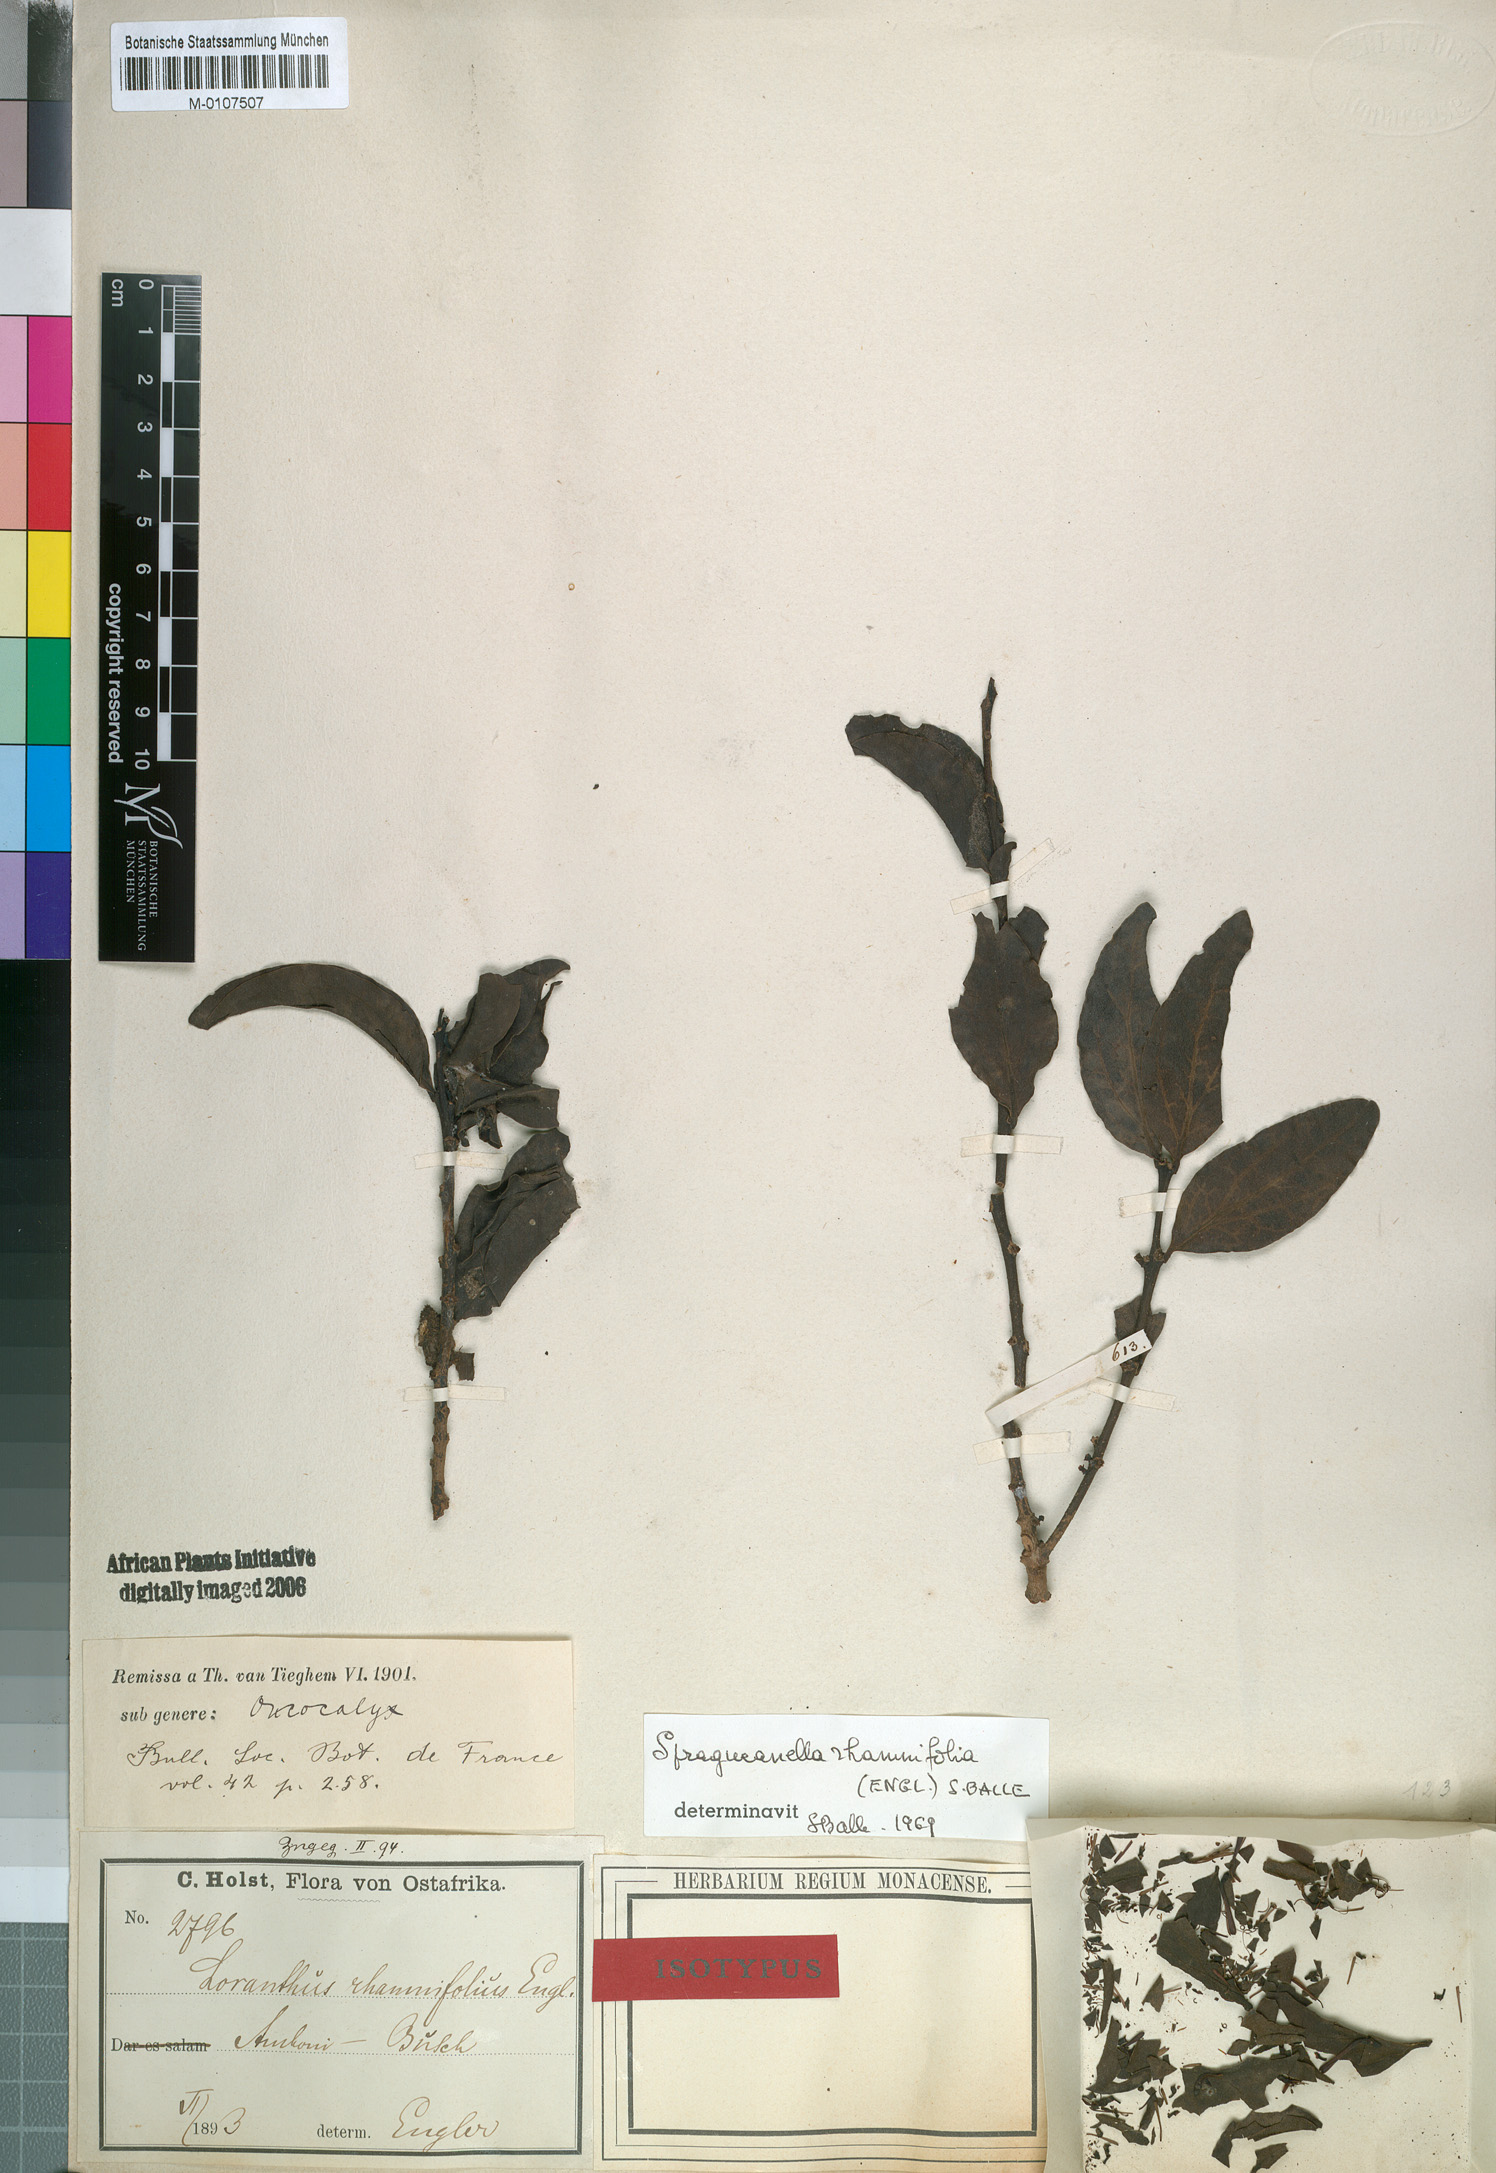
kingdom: Plantae
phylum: Tracheophyta
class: Magnoliopsida
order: Santalales
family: Loranthaceae
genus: Spragueanella
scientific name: Spragueanella rhamnifolia
